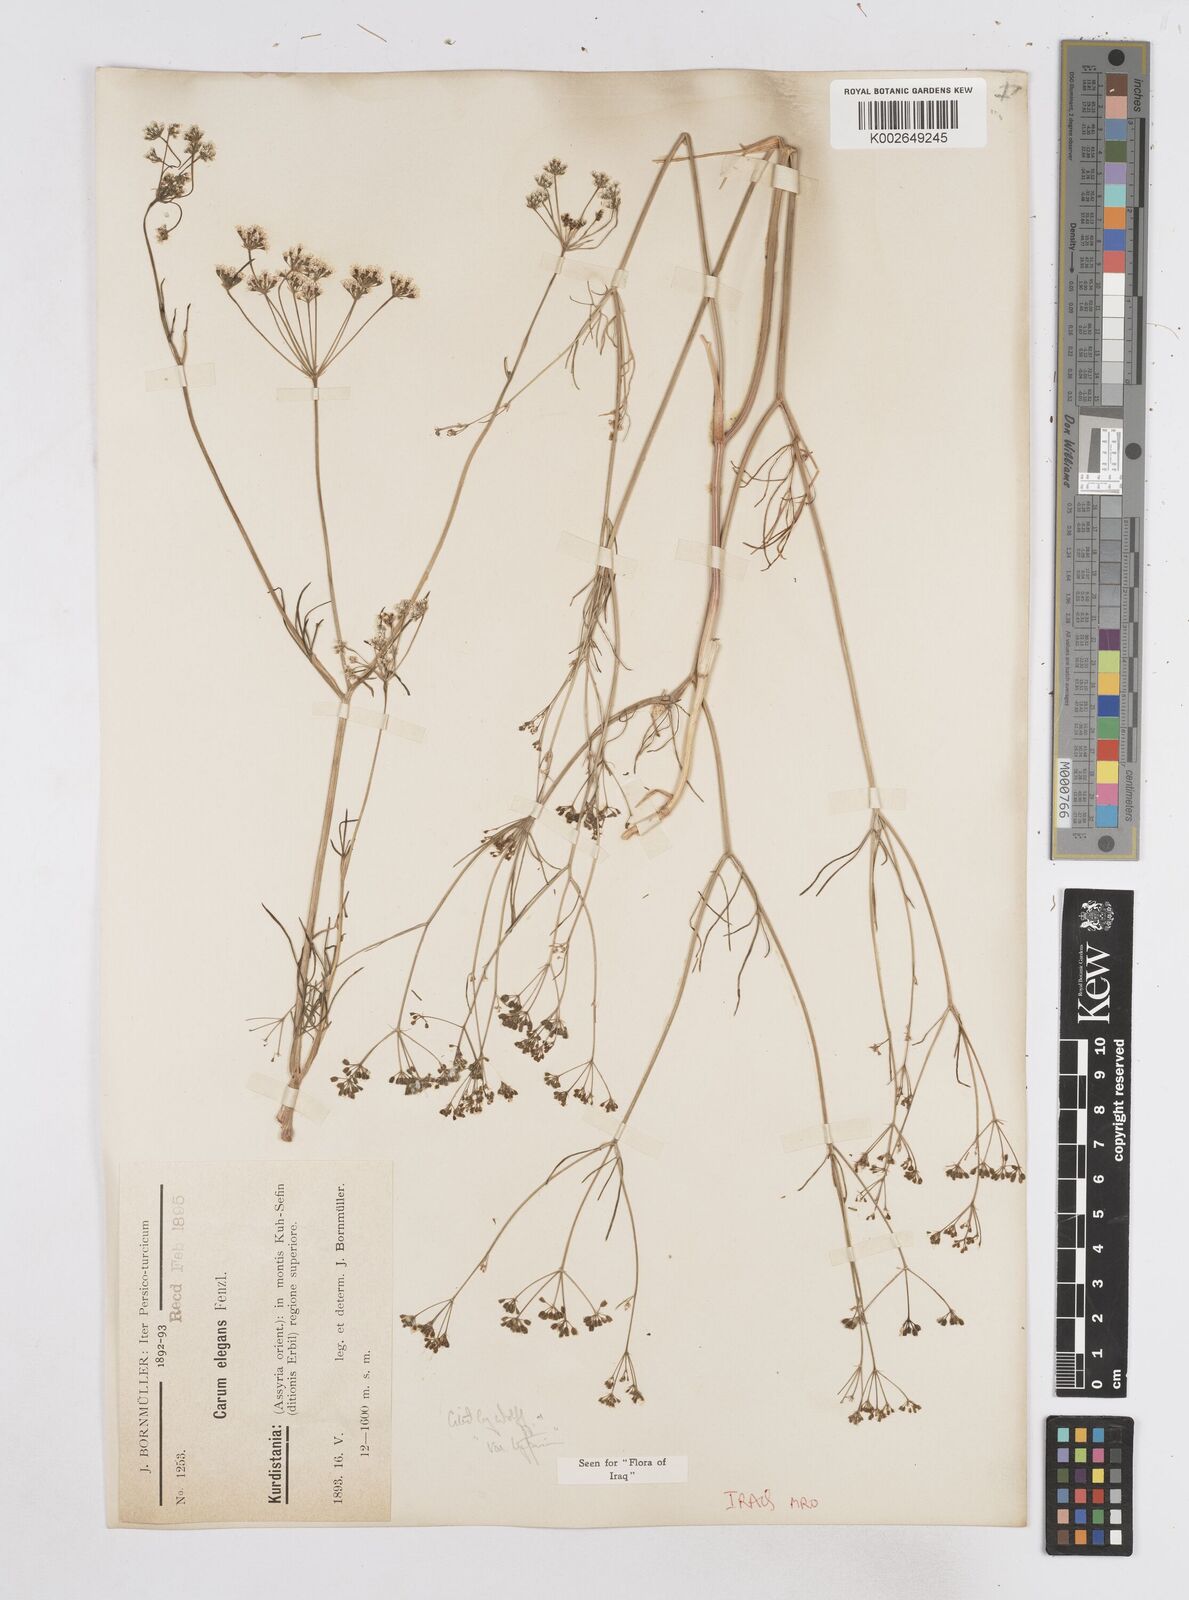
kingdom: Plantae
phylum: Tracheophyta
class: Magnoliopsida
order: Apiales
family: Apiaceae
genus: Bunium
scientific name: Bunium paucifolium
